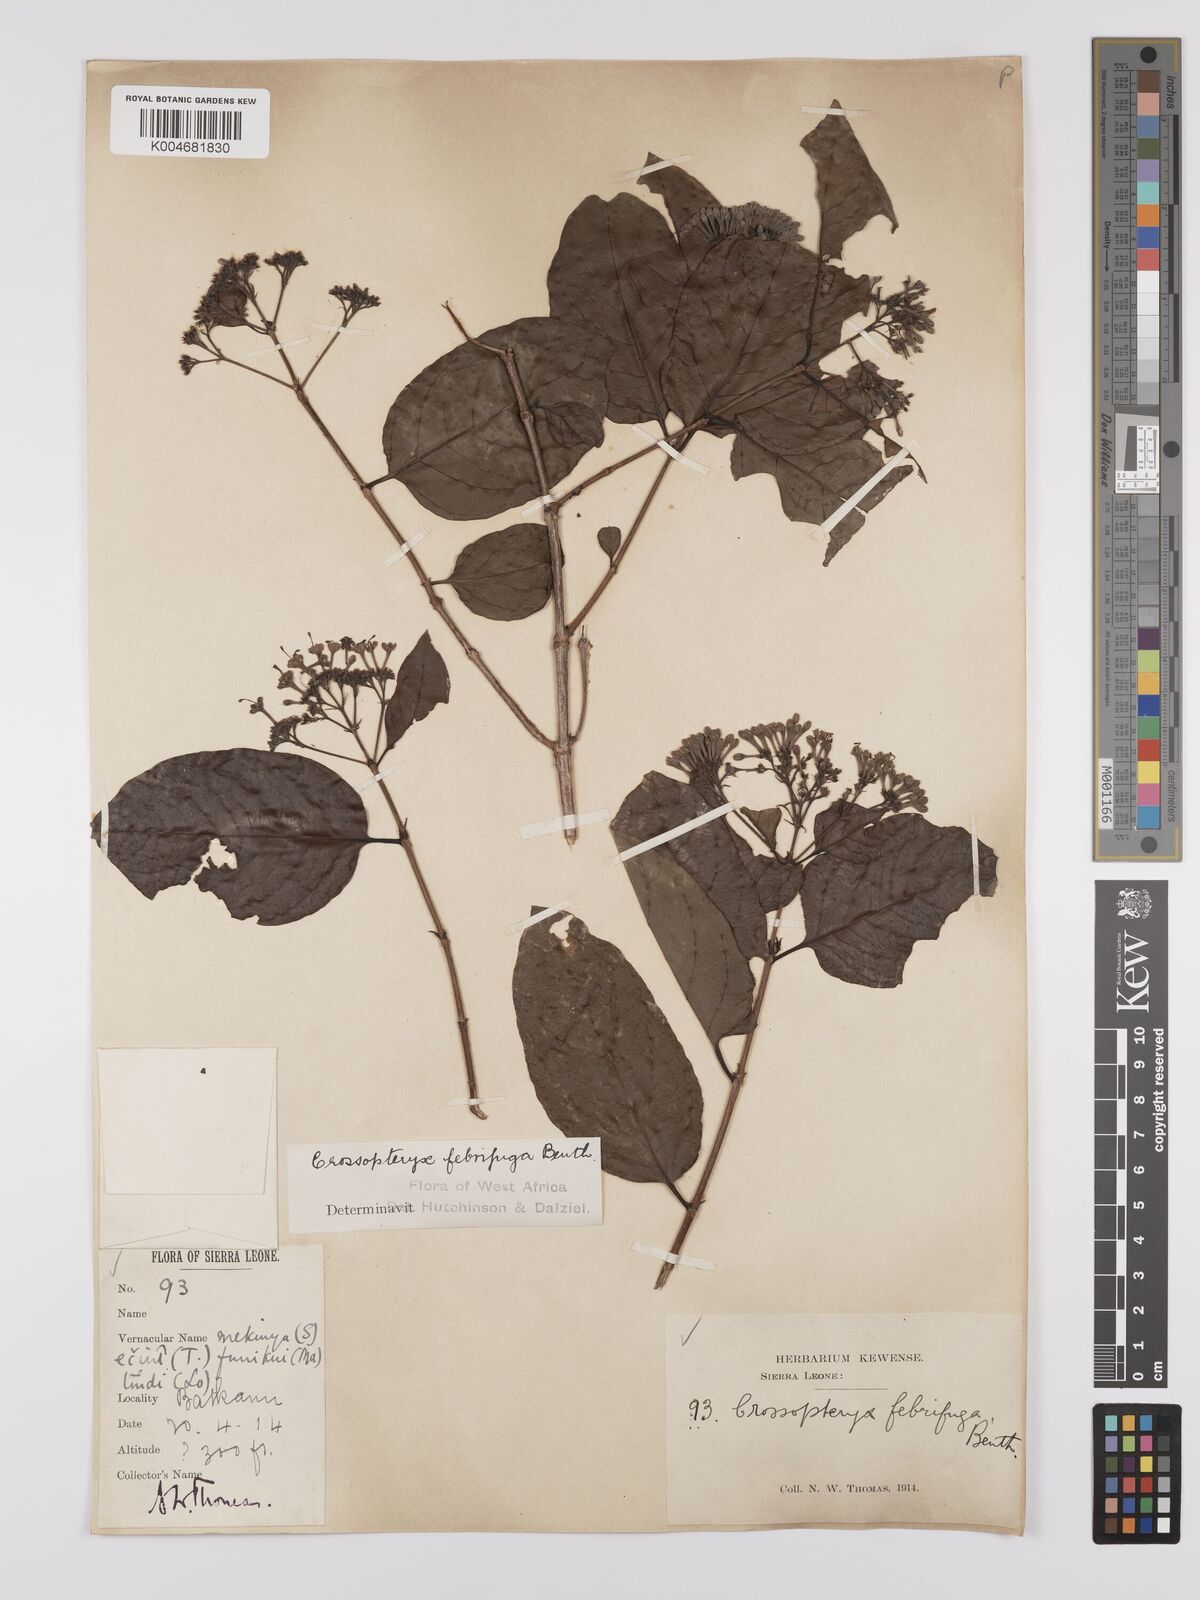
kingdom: Plantae
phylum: Tracheophyta
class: Magnoliopsida
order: Gentianales
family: Rubiaceae
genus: Crossopteryx
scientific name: Crossopteryx febrifuga
